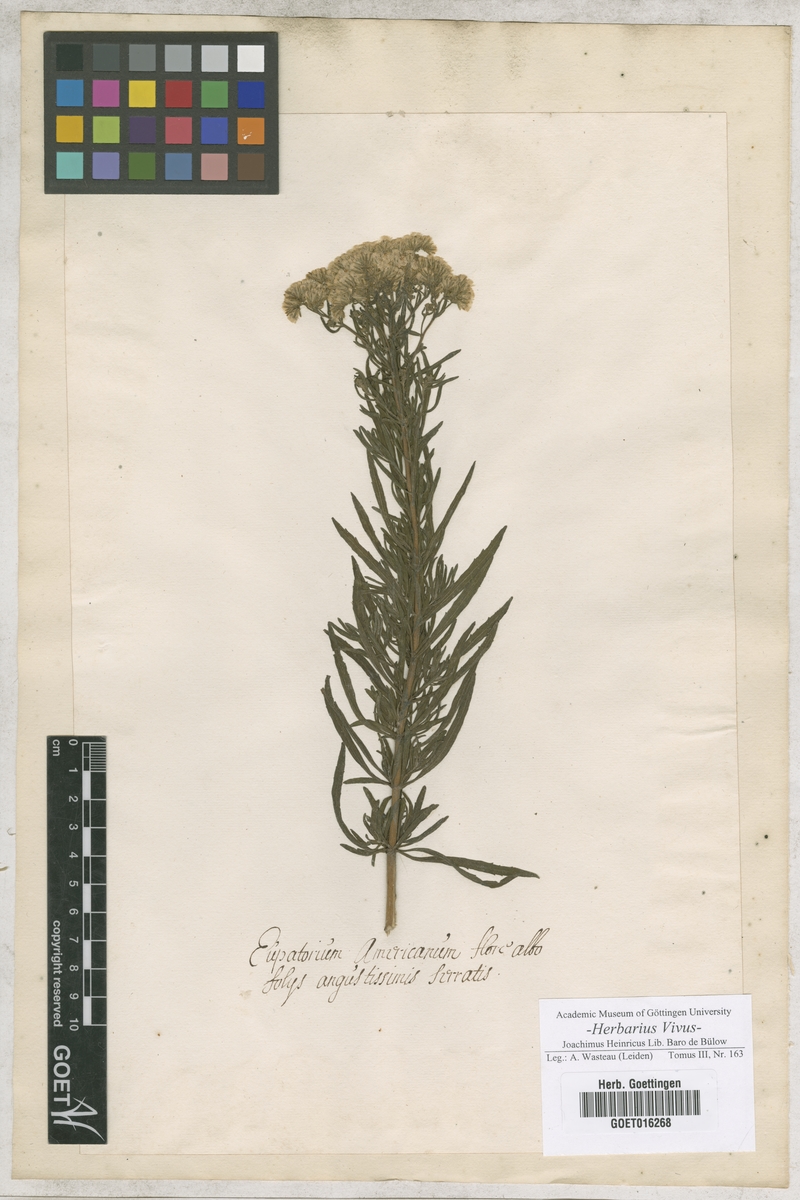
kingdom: Plantae
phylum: Tracheophyta
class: Magnoliopsida
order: Asterales
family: Asteraceae
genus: Eupatorium
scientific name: Eupatorium
